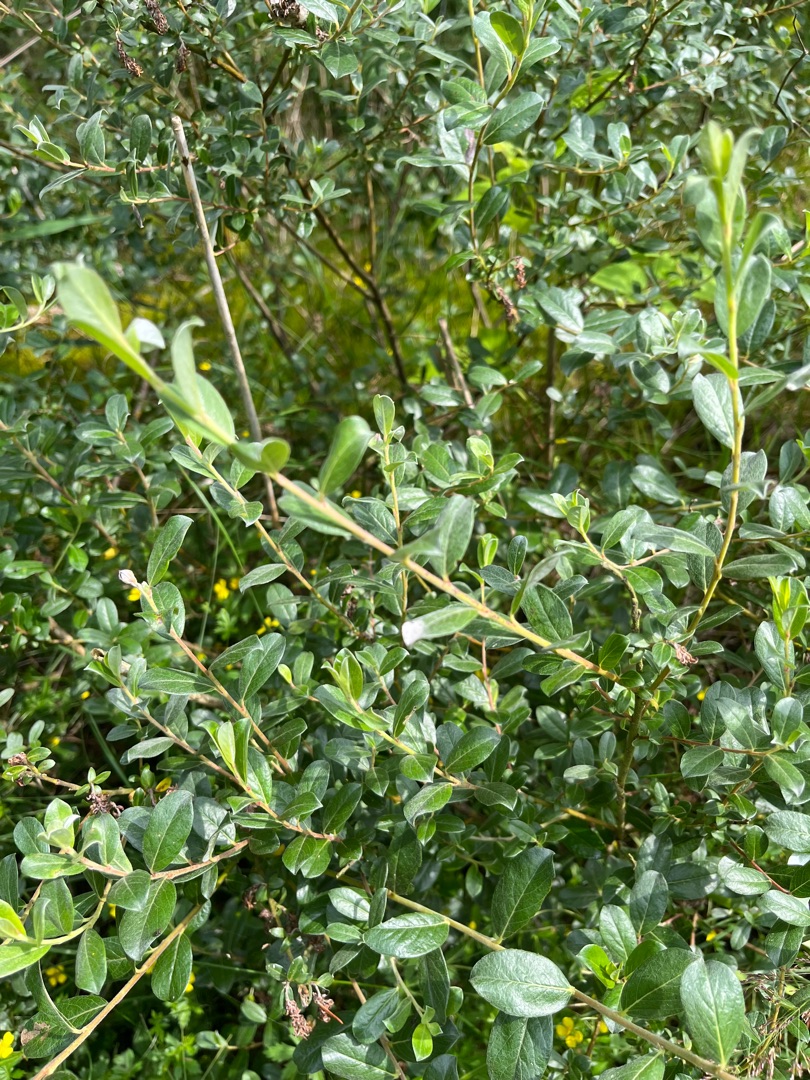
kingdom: Plantae
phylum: Tracheophyta
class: Magnoliopsida
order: Malpighiales
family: Salicaceae
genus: Salix
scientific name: Salix repens
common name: Krybende pil
